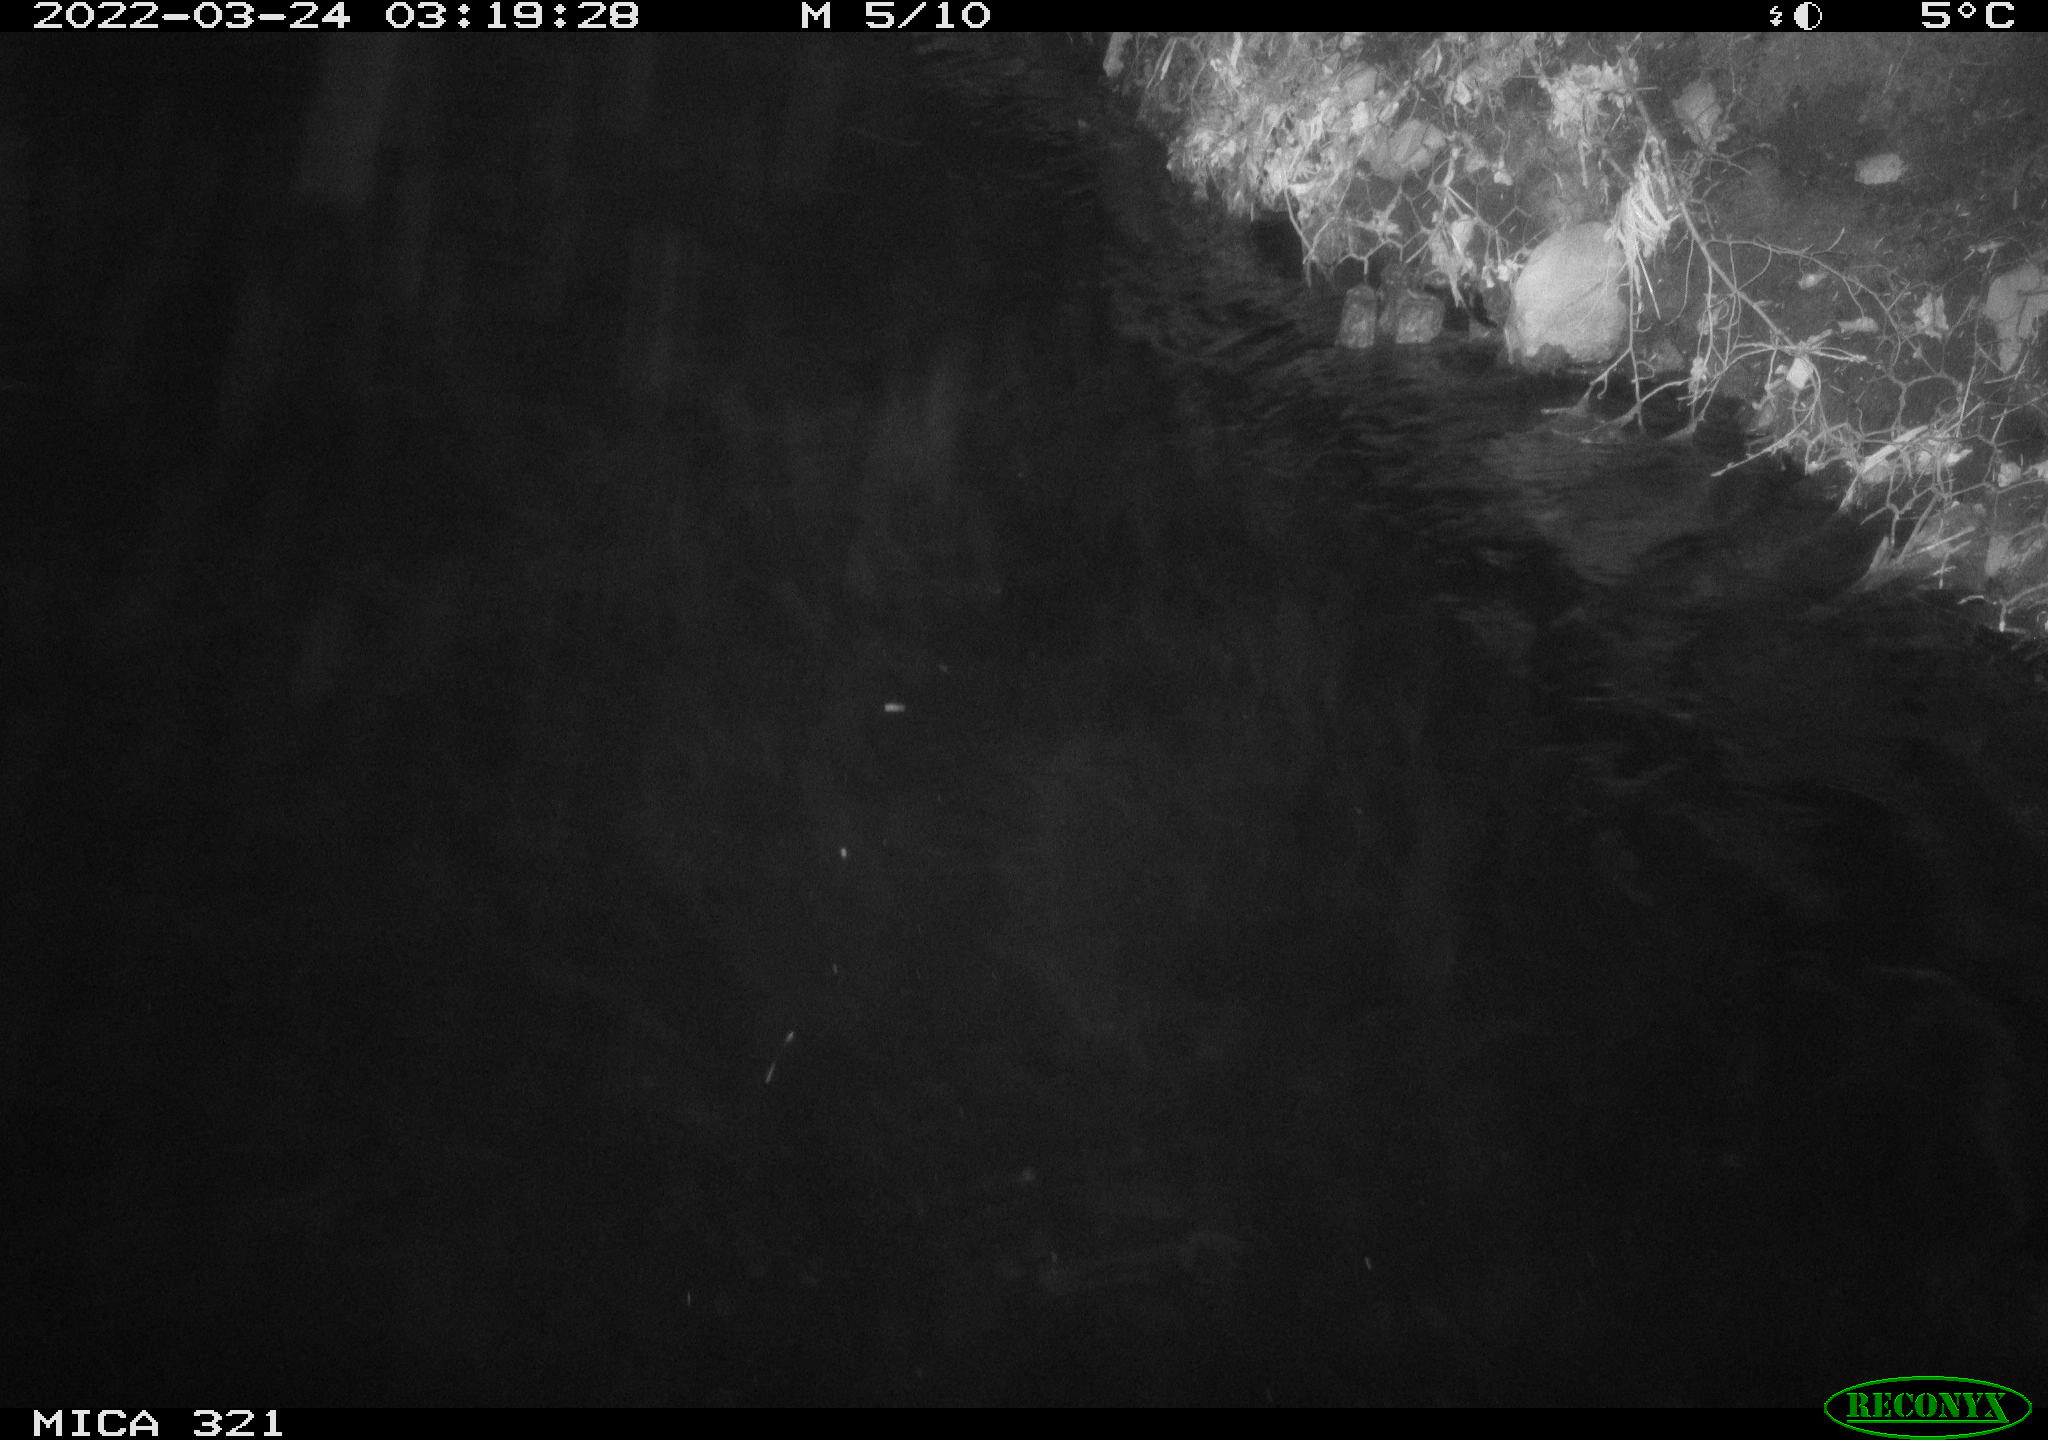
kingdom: Animalia
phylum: Chordata
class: Aves
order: Anseriformes
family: Anatidae
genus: Anas
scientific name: Anas platyrhynchos
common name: Mallard
